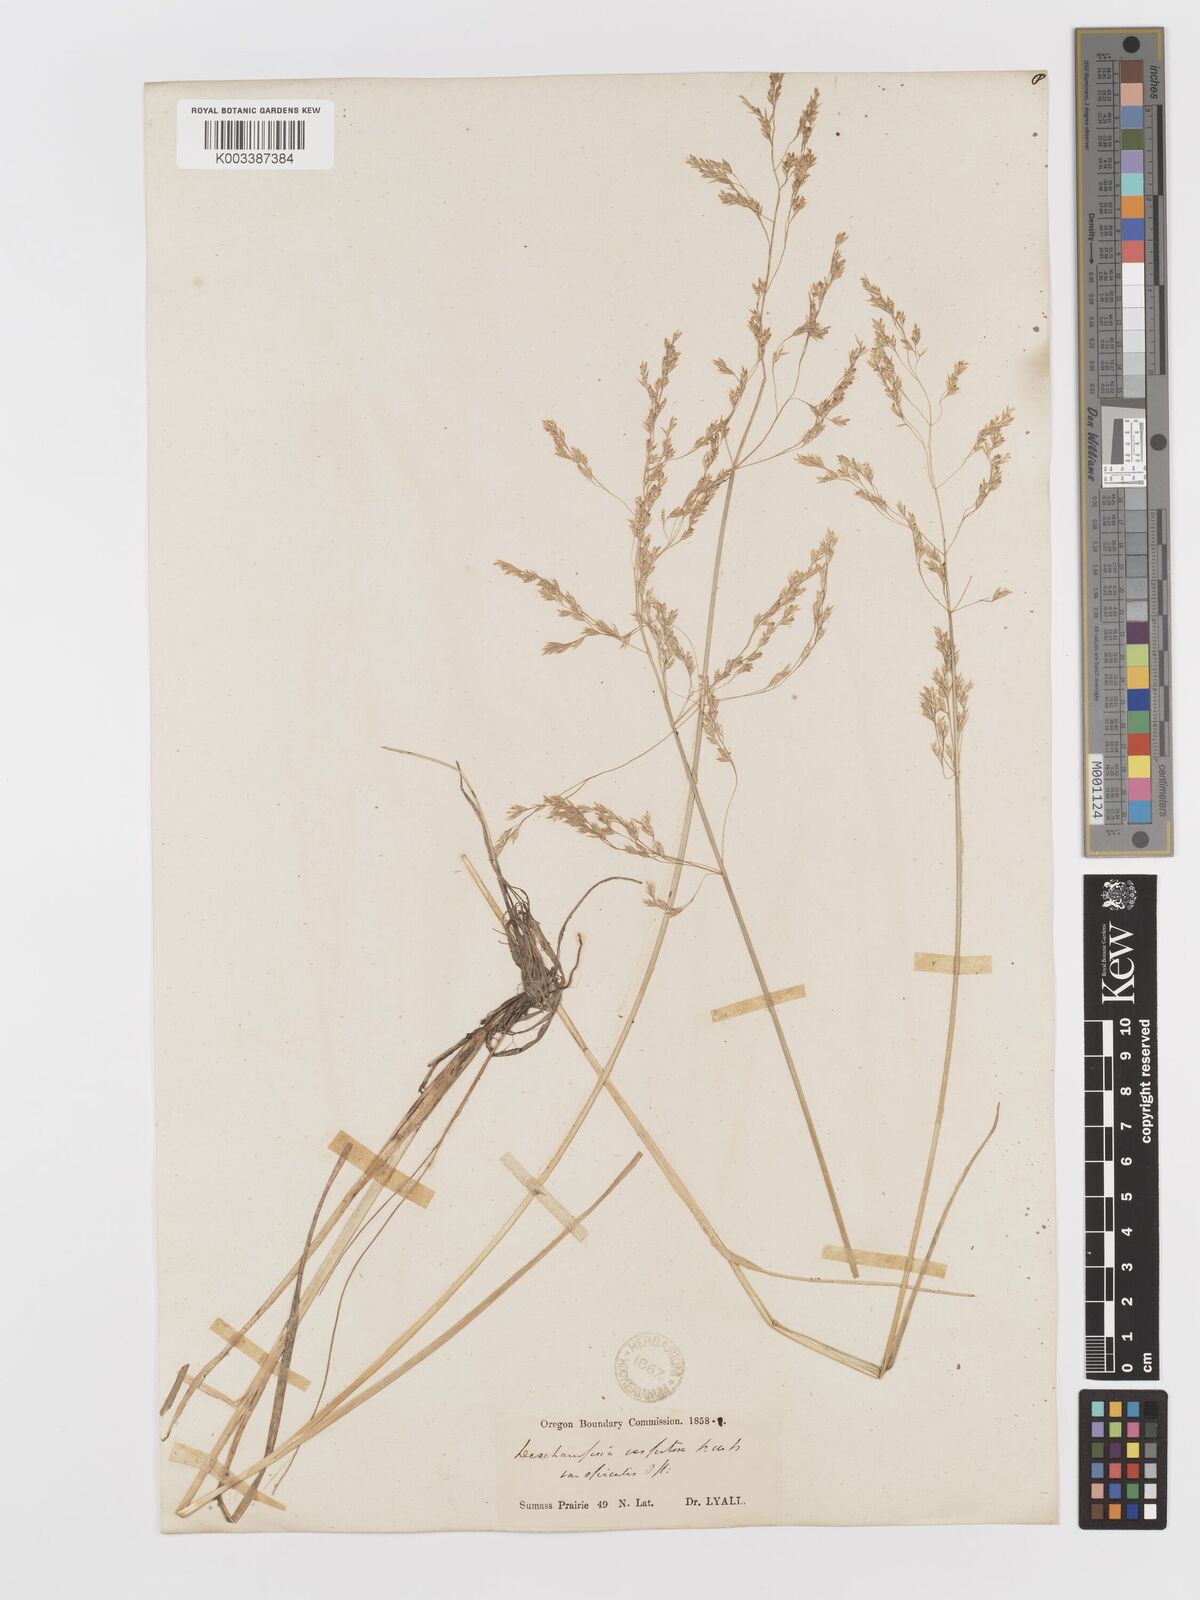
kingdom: Plantae
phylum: Tracheophyta
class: Liliopsida
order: Poales
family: Poaceae
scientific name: Poaceae
